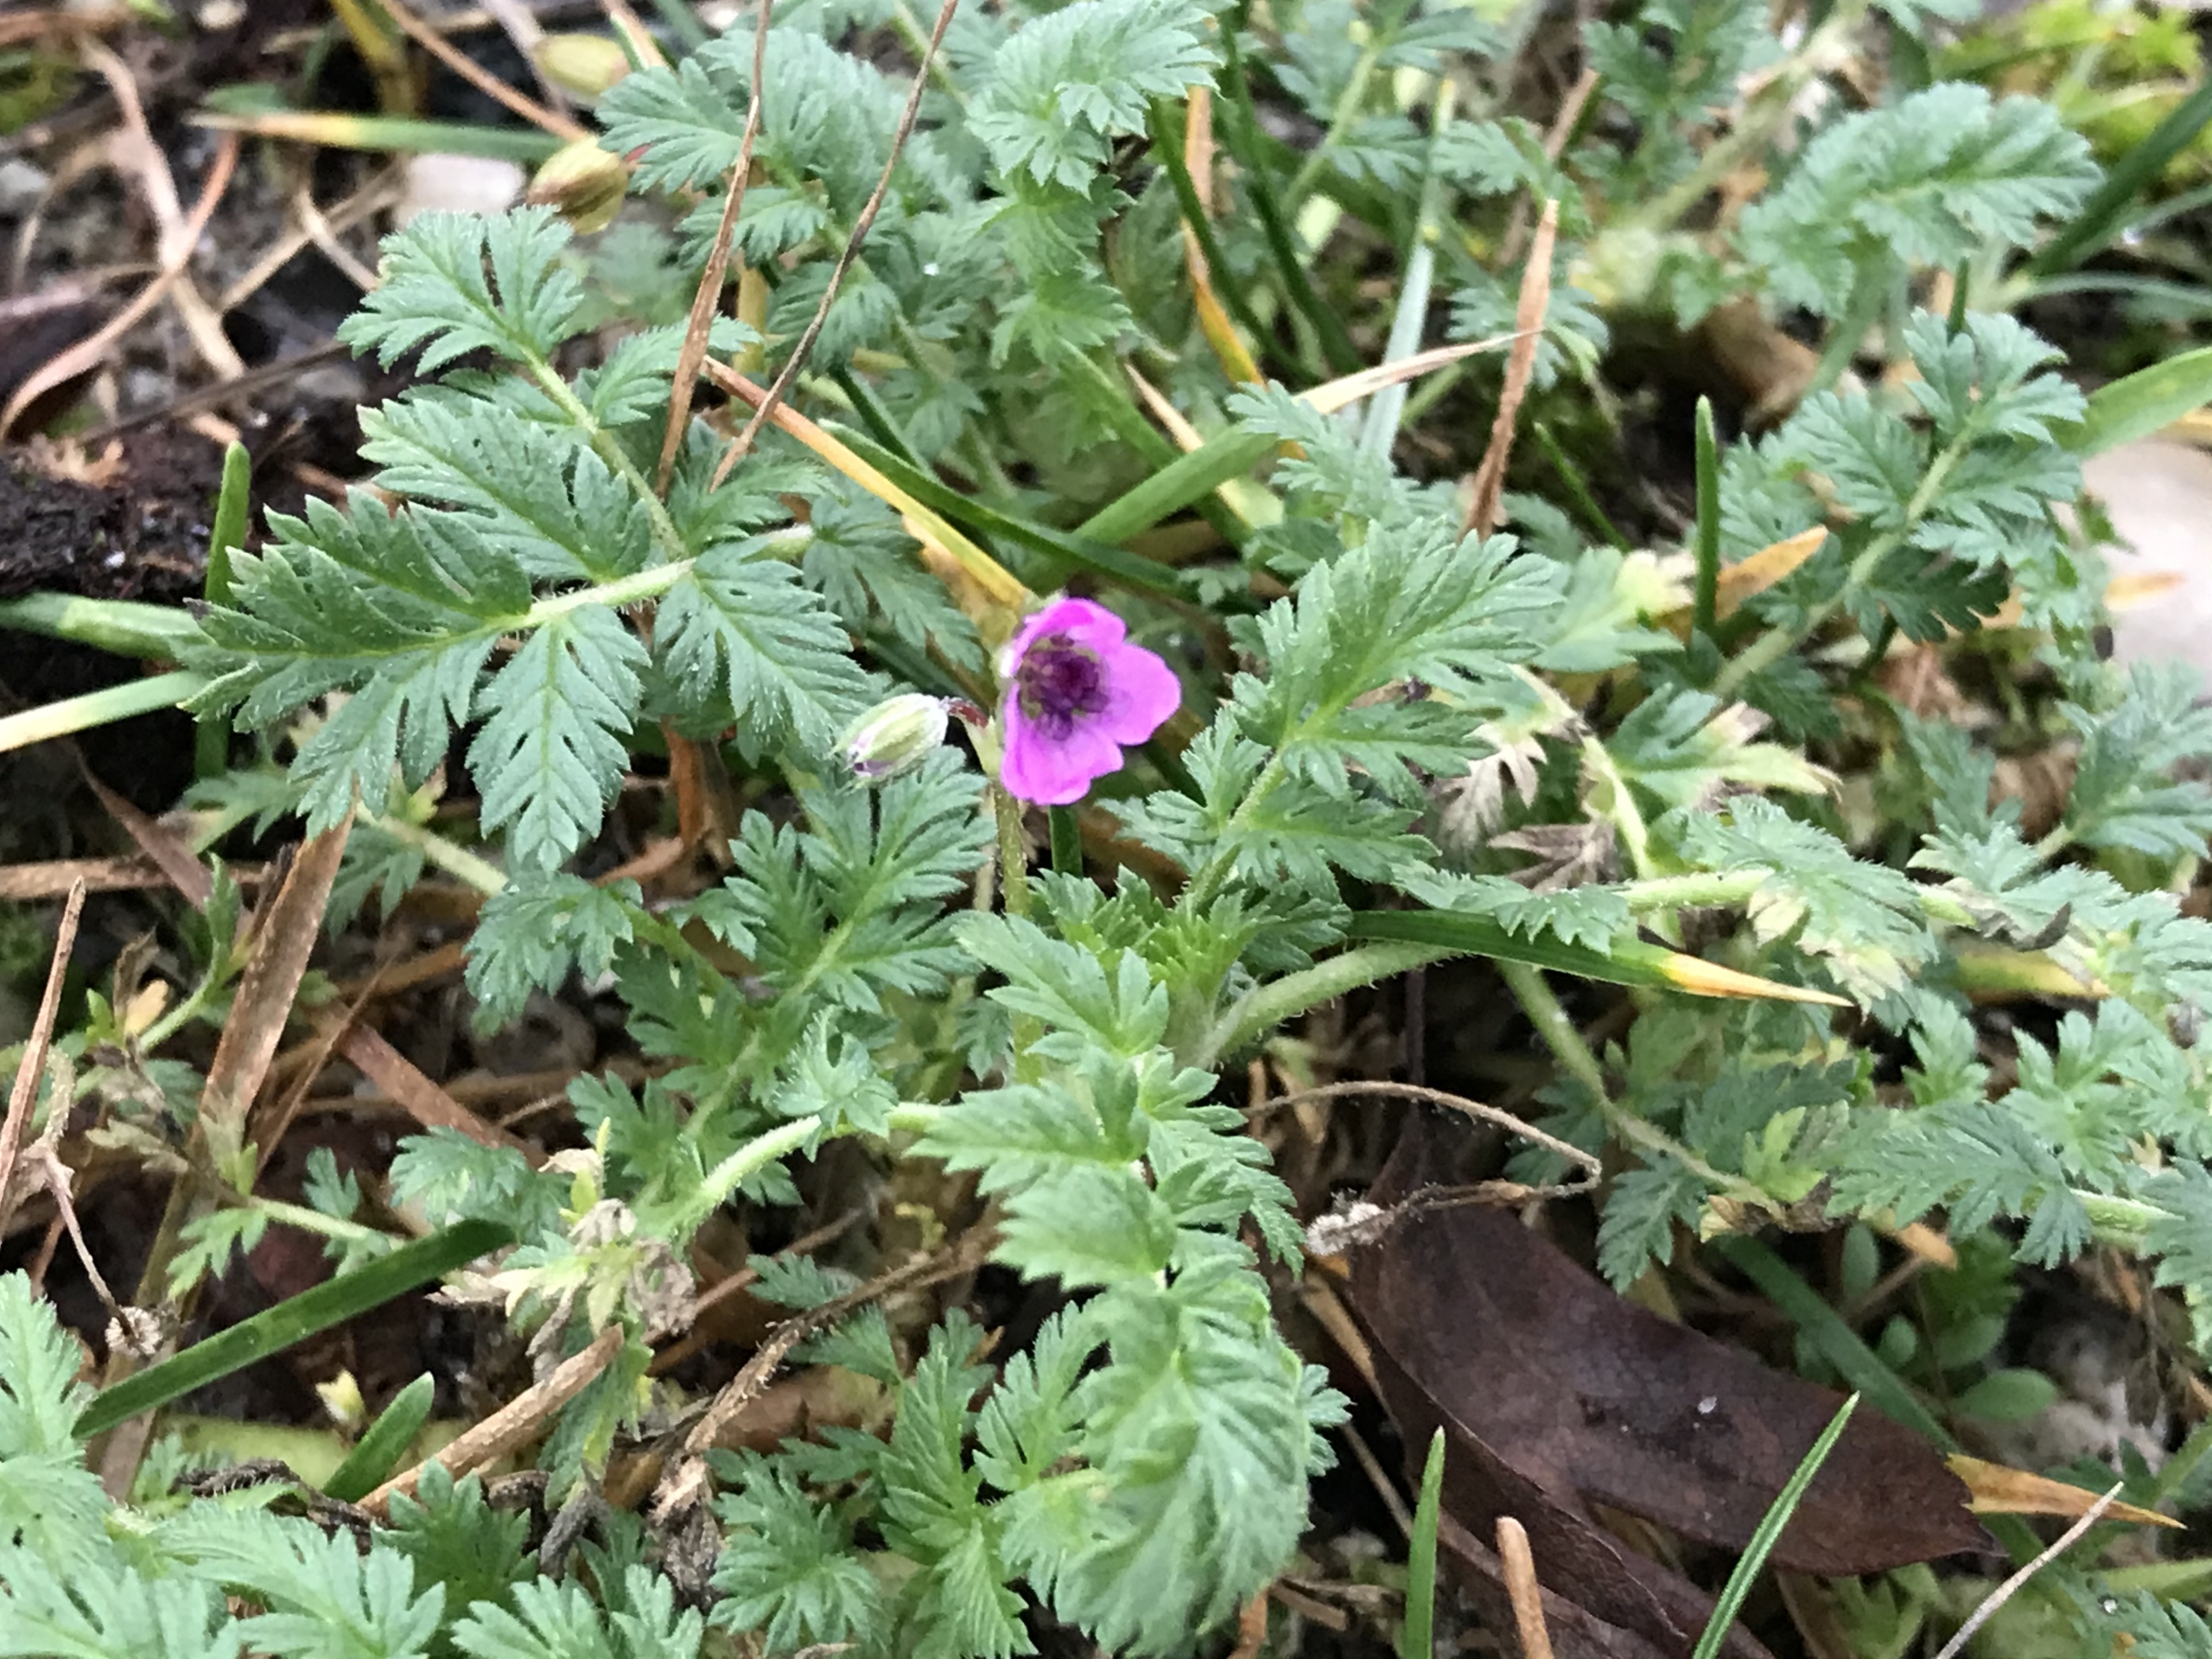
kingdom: Plantae
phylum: Tracheophyta
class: Magnoliopsida
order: Geraniales
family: Geraniaceae
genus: Erodium
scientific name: Erodium cicutarium
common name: Hejrenæb
